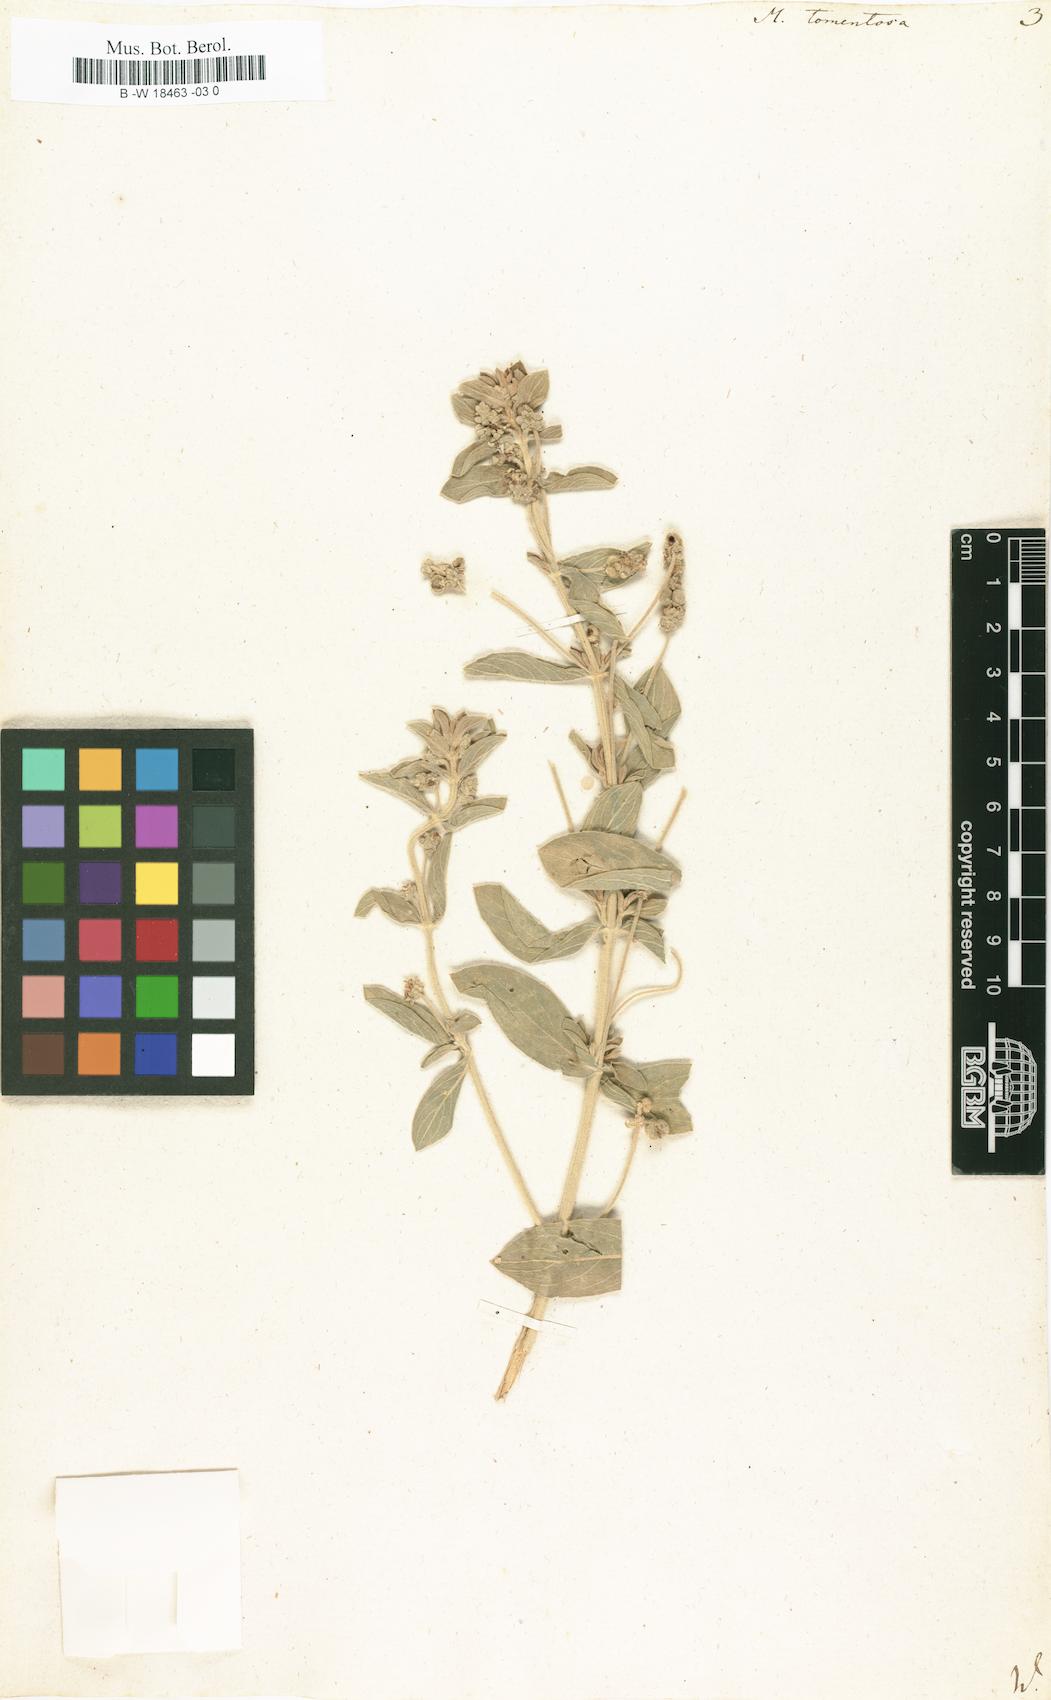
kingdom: Plantae
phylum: Tracheophyta
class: Magnoliopsida
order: Malpighiales
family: Euphorbiaceae
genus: Mercurialis
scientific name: Mercurialis tomentosa
